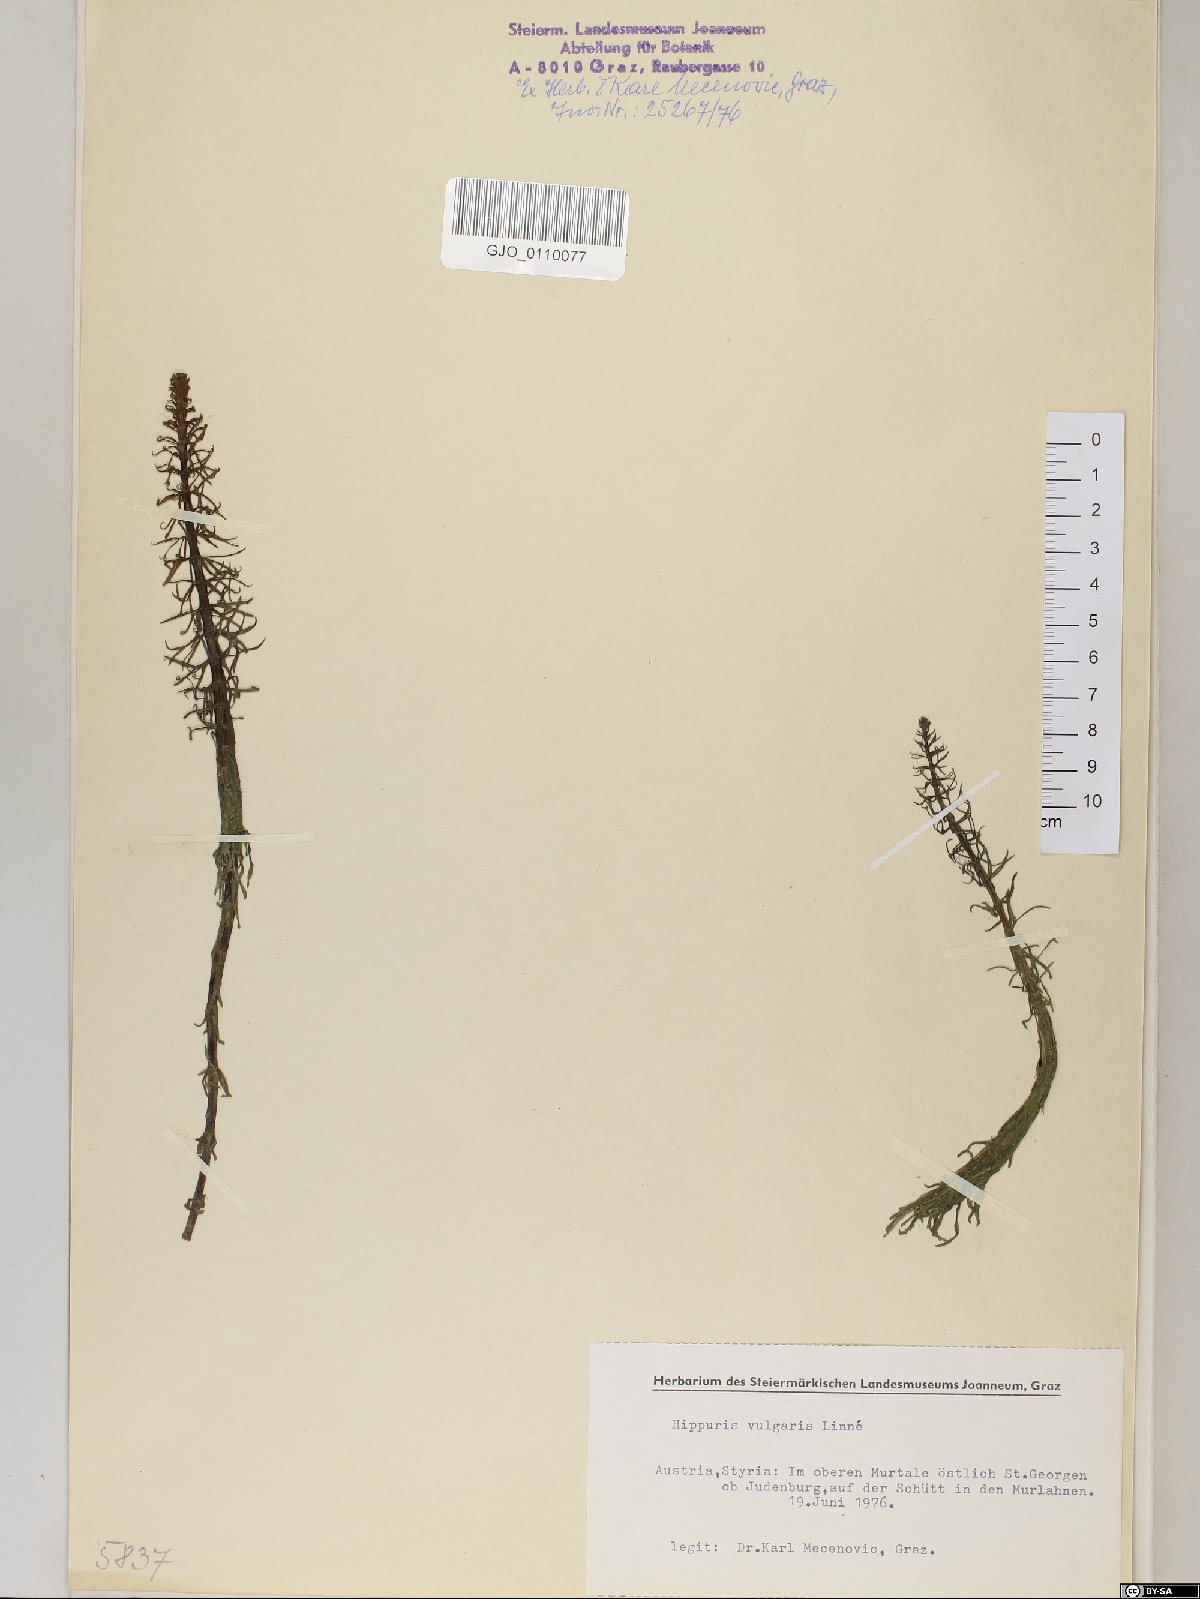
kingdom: Plantae
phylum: Tracheophyta
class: Magnoliopsida
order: Lamiales
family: Plantaginaceae
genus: Hippuris
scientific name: Hippuris vulgaris
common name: Mare's-tail
